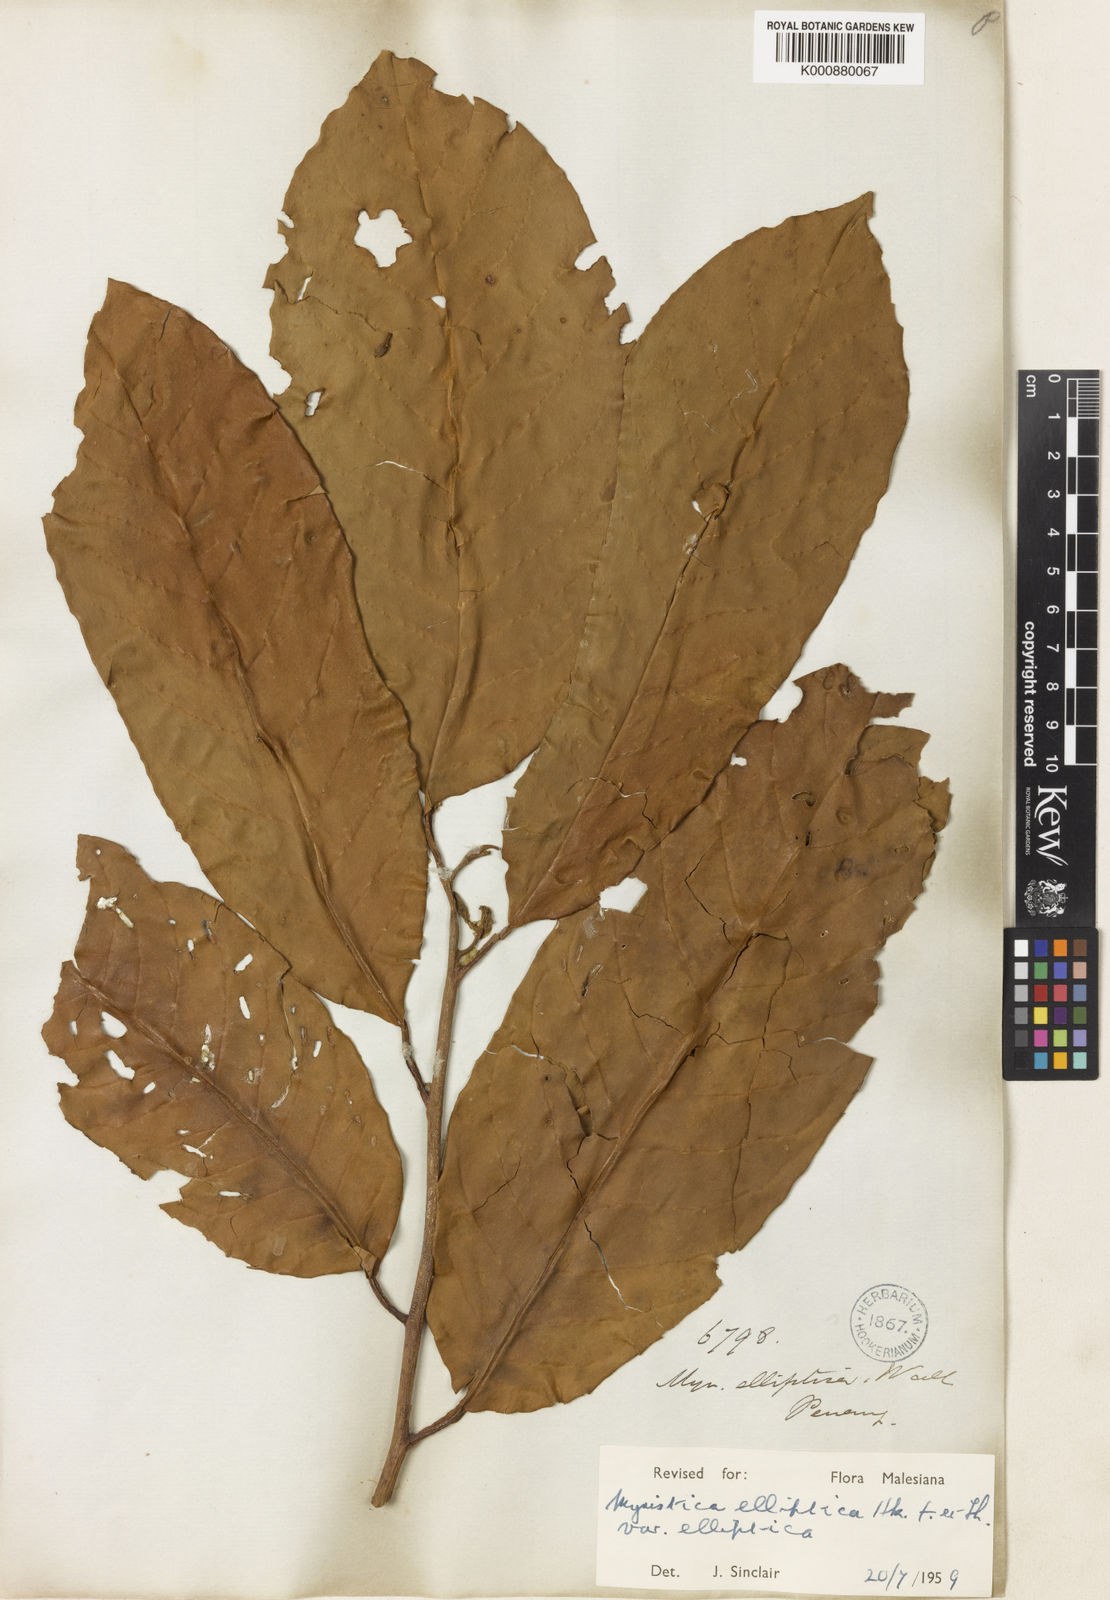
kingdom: Plantae
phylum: Tracheophyta
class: Magnoliopsida
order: Magnoliales
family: Myristicaceae
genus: Myristica
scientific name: Myristica elliptica
